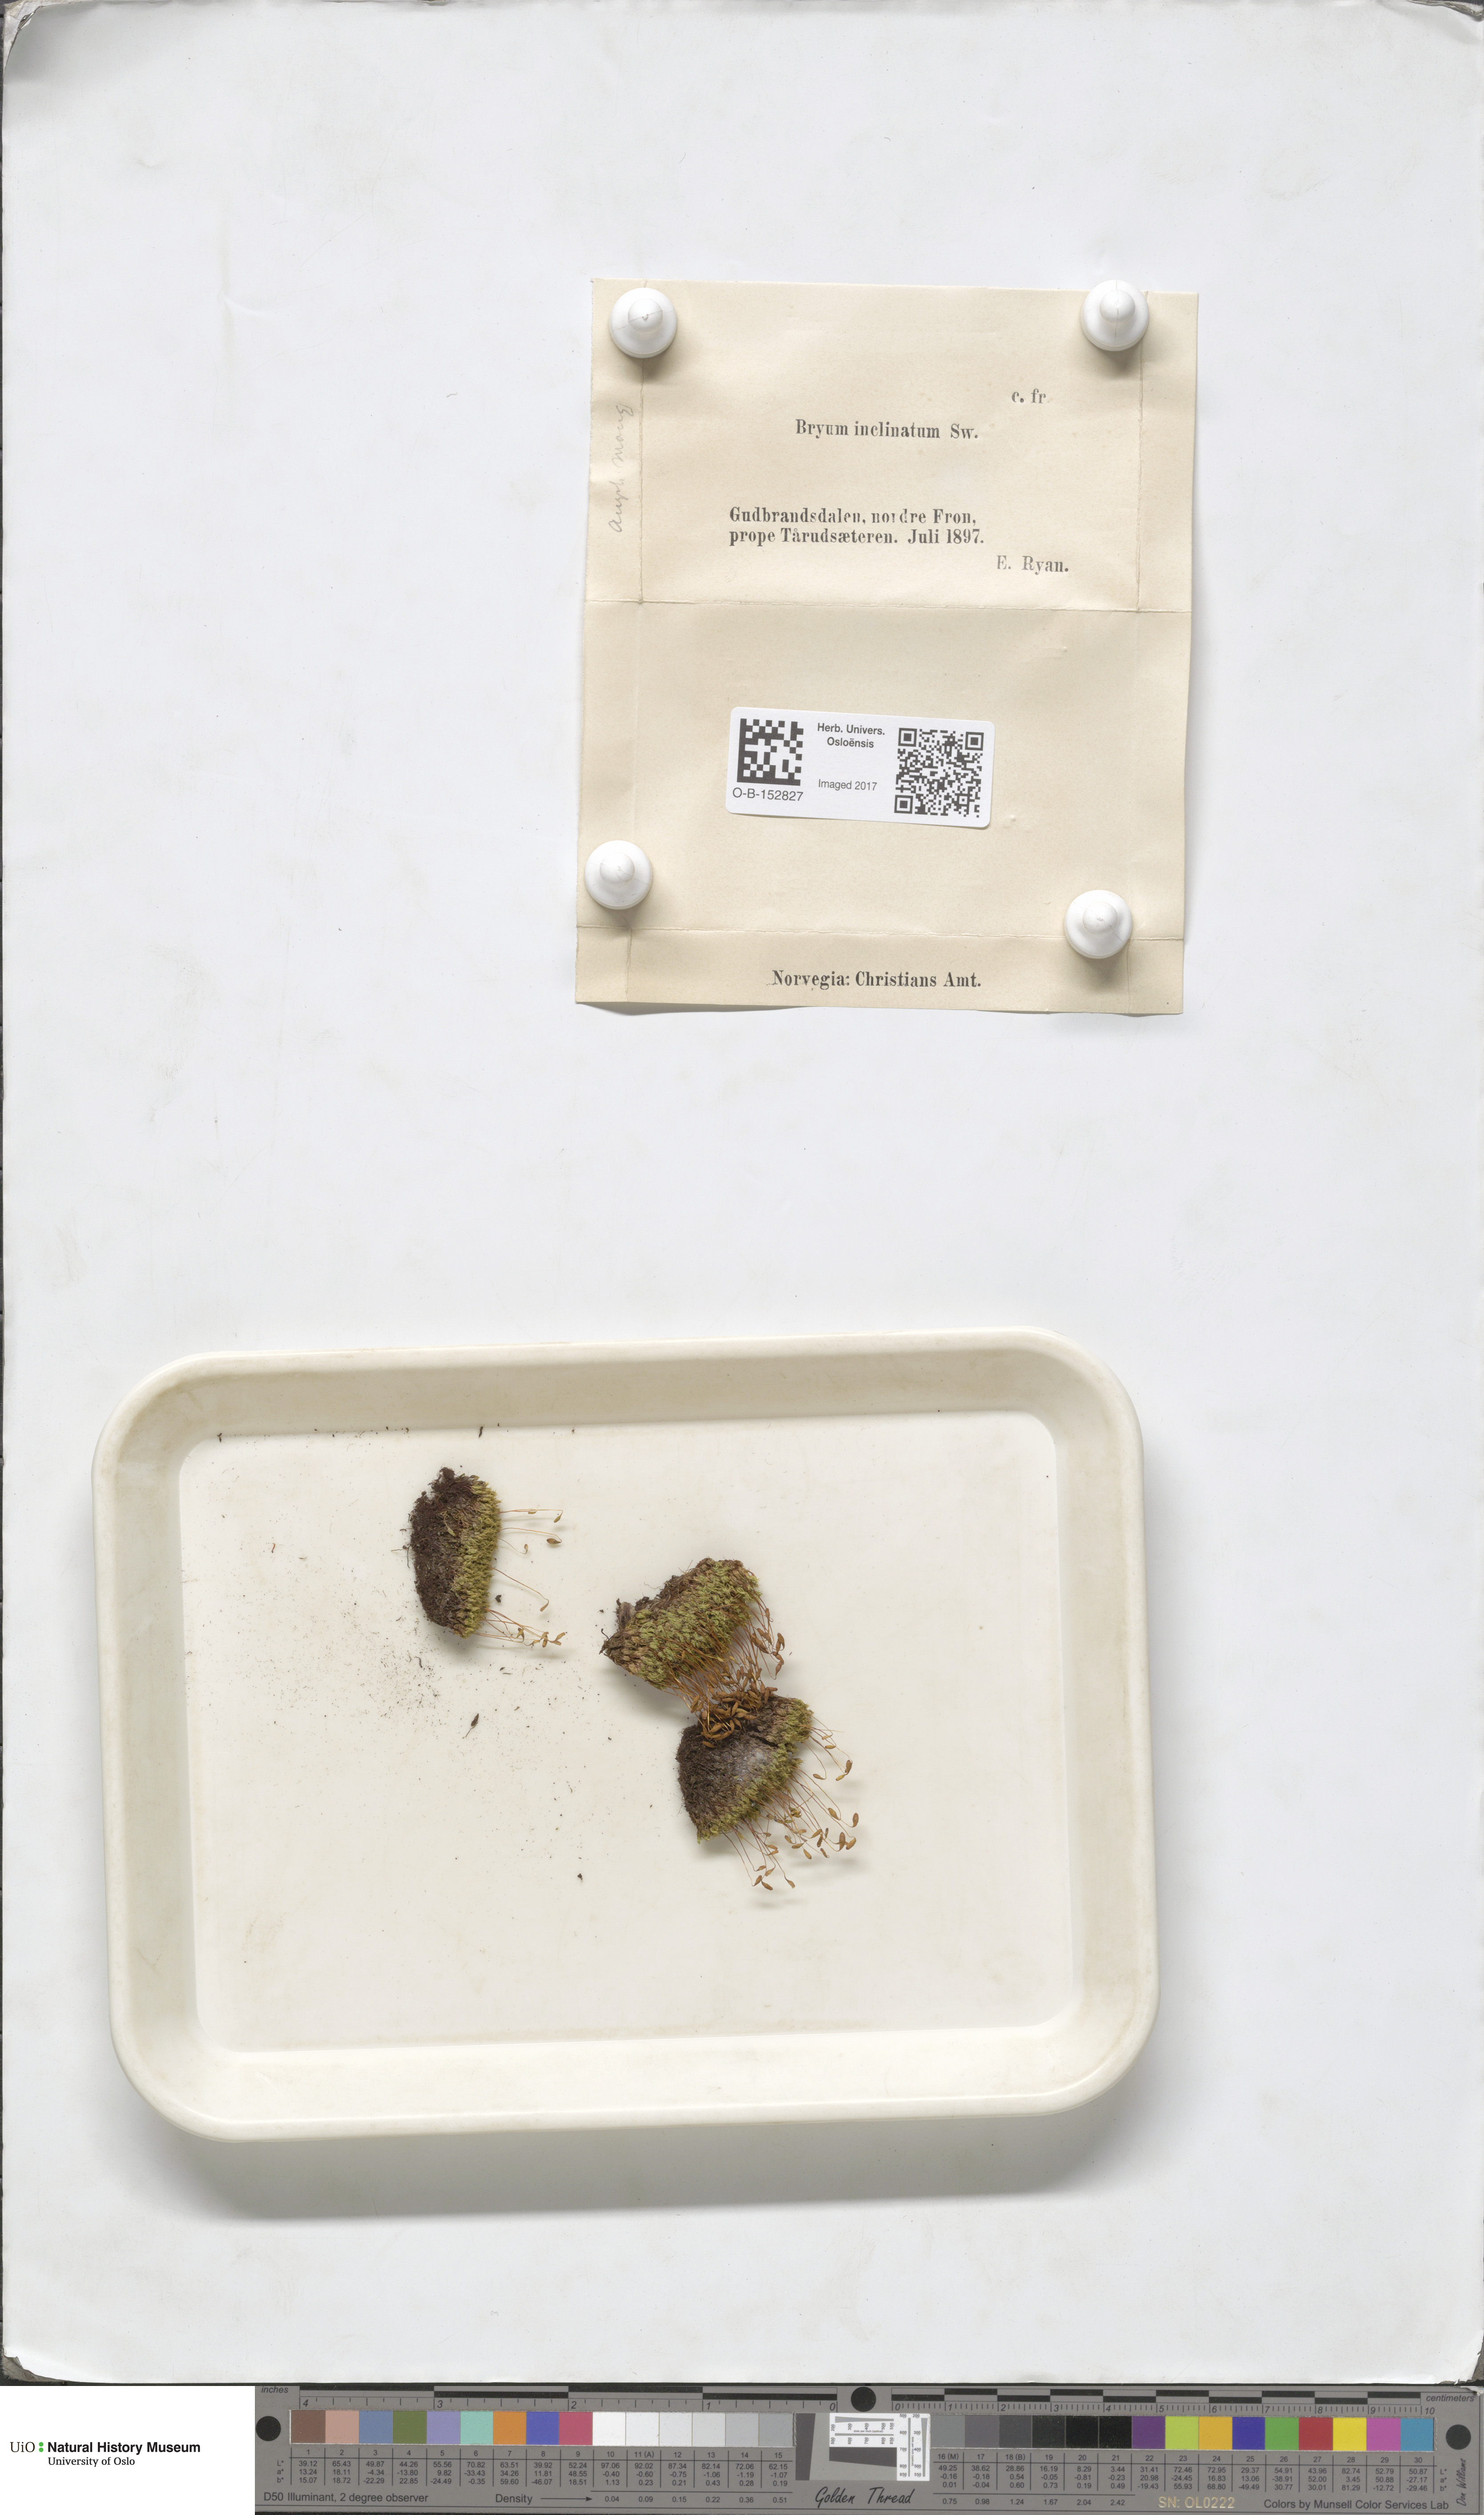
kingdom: Plantae
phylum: Bryophyta
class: Bryopsida
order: Bryales
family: Bryaceae
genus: Ptychostomum
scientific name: Ptychostomum inclinatum
